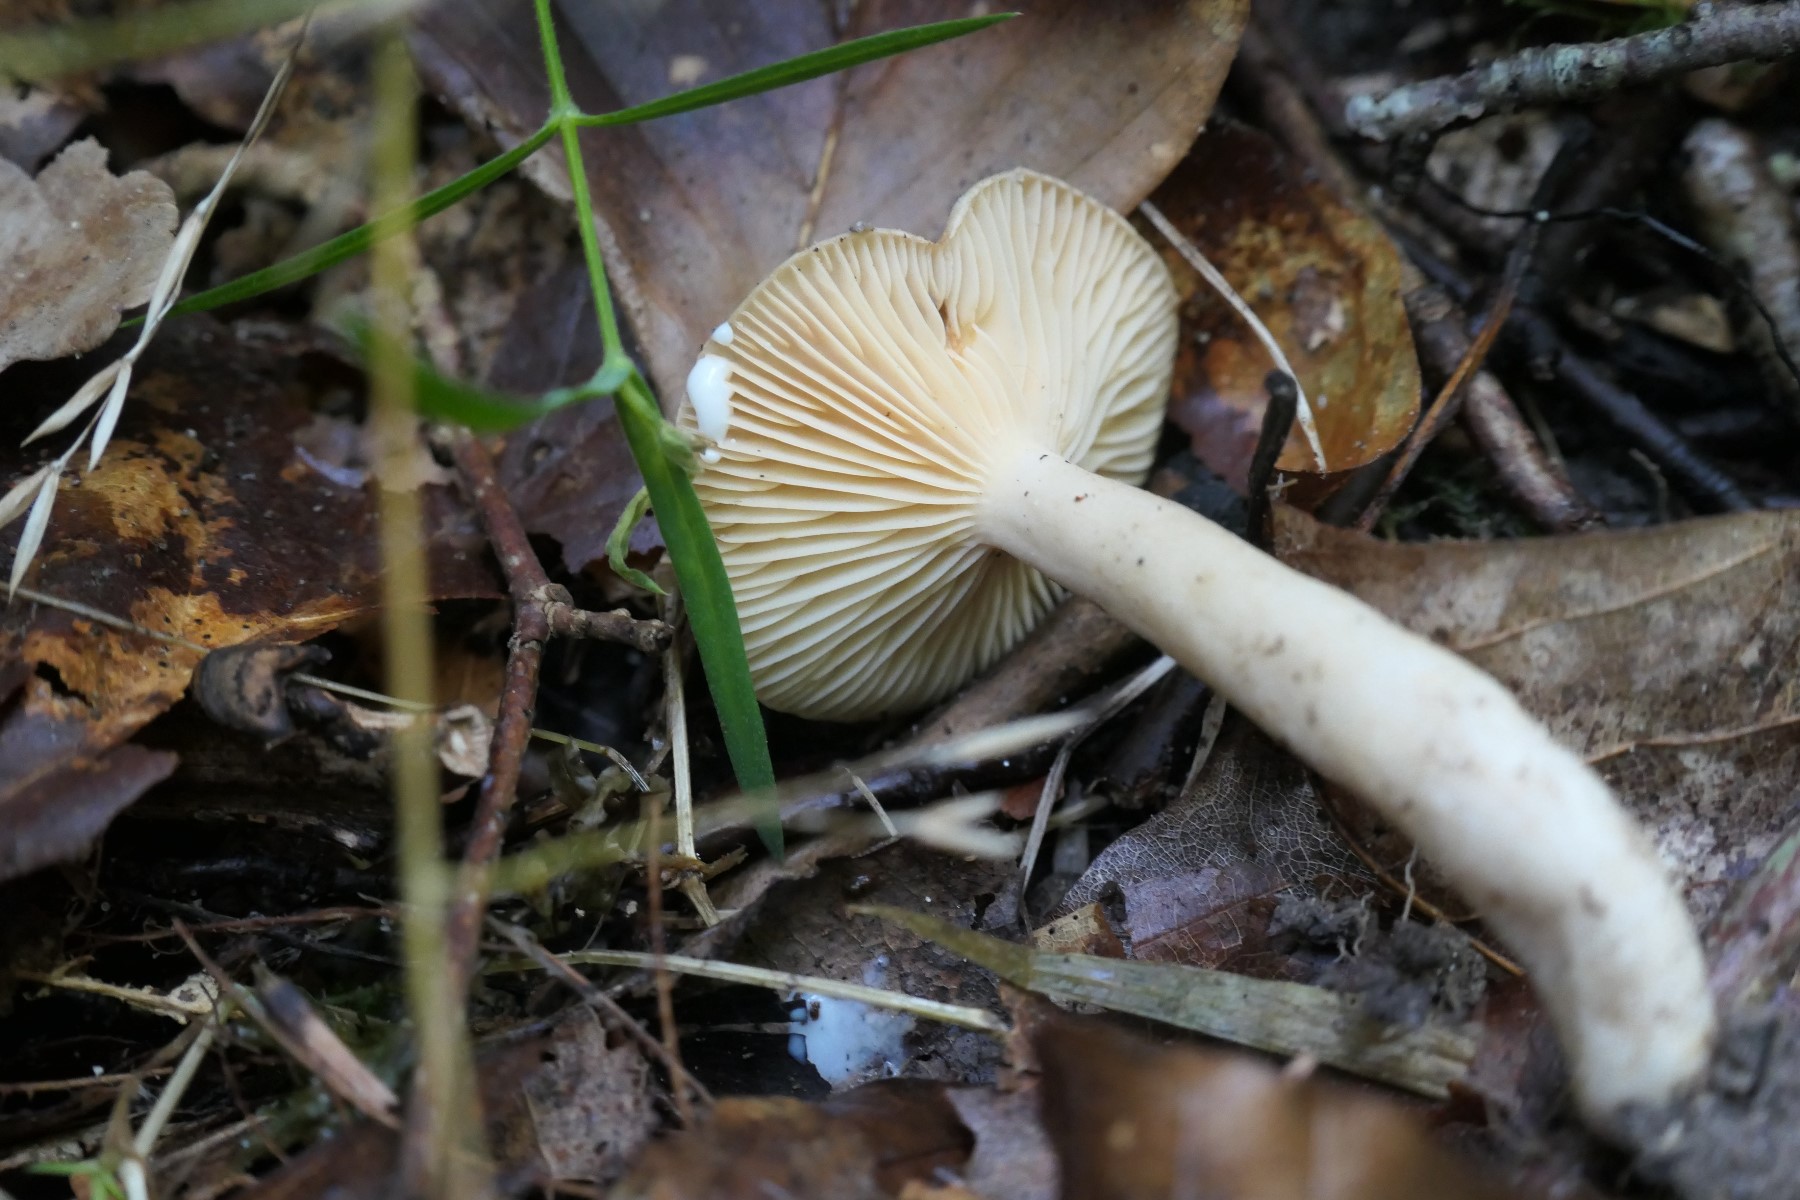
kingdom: Fungi
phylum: Basidiomycota
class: Agaricomycetes
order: Russulales
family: Russulaceae
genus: Lactarius
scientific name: Lactarius pyrogalus
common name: hassel-mælkehat
